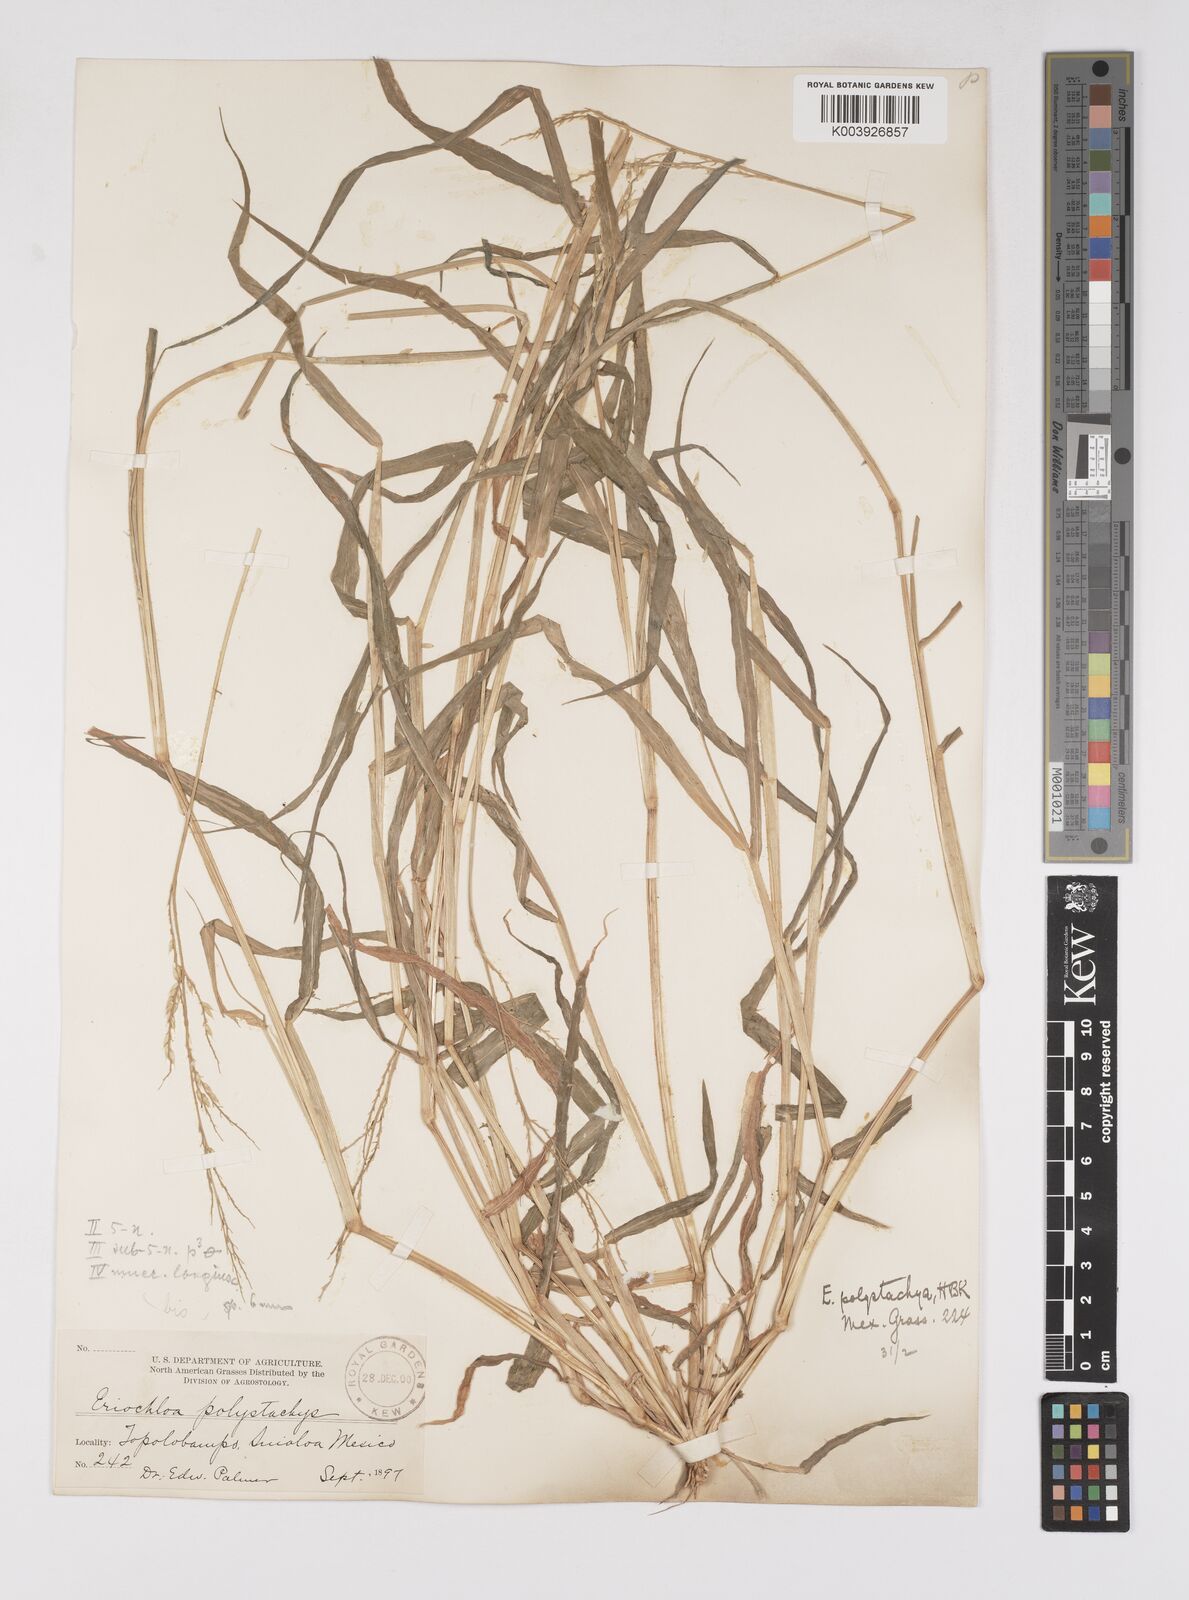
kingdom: Plantae
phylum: Tracheophyta
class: Liliopsida
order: Poales
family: Poaceae
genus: Eriochloa
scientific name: Eriochloa aristata
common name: Bearded cup grass
